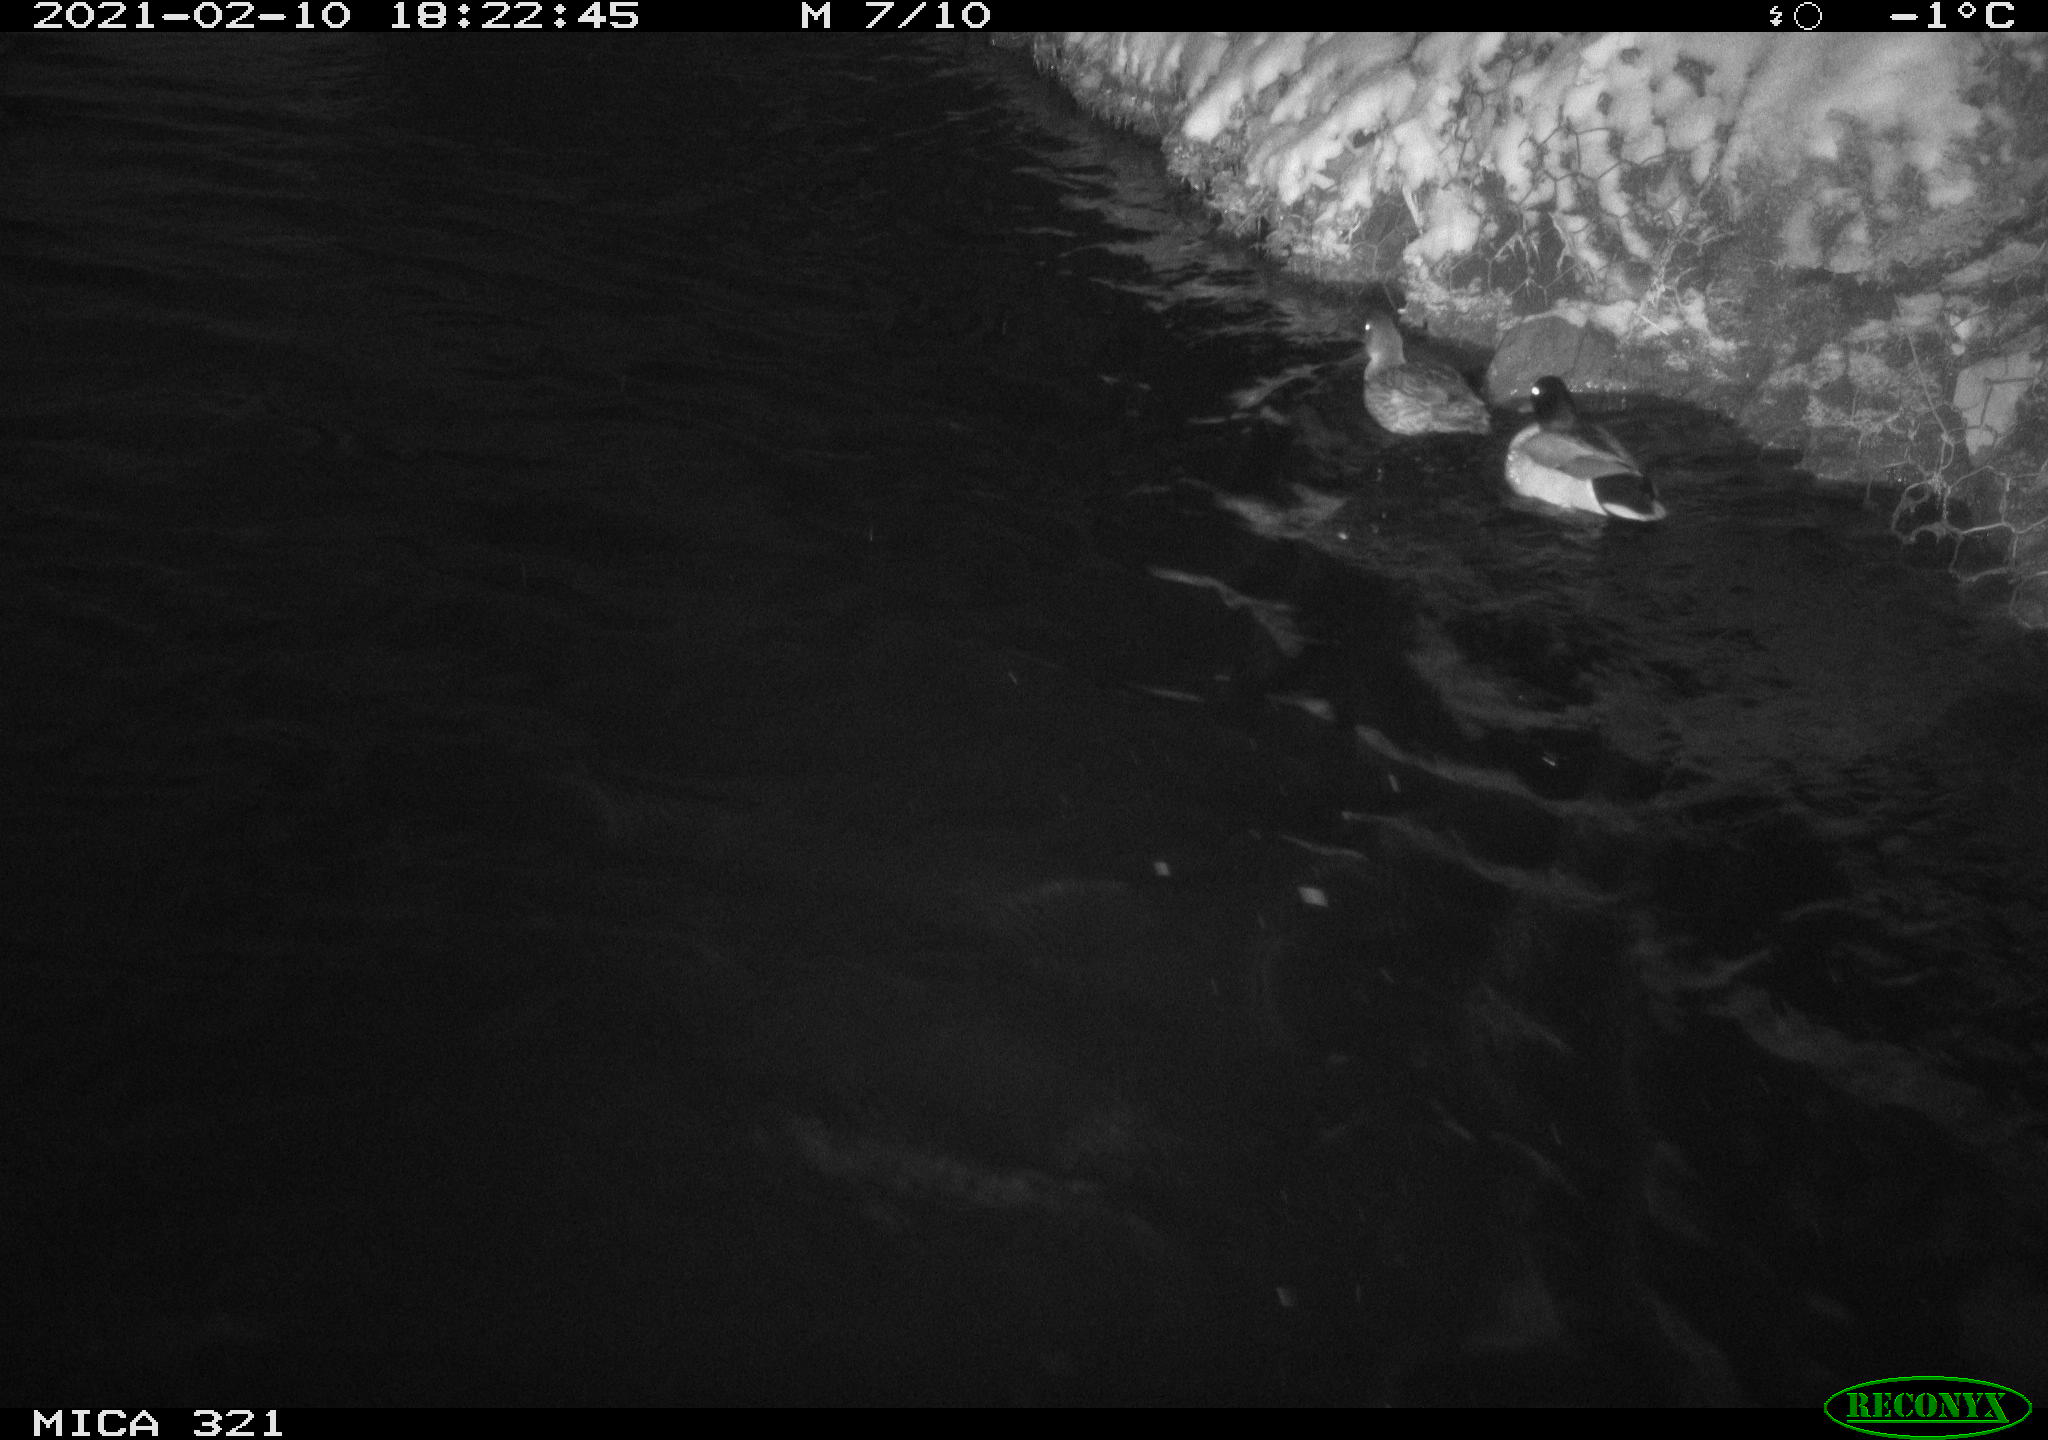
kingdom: Animalia
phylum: Chordata
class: Aves
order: Anseriformes
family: Anatidae
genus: Anas
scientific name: Anas platyrhynchos
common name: Mallard
